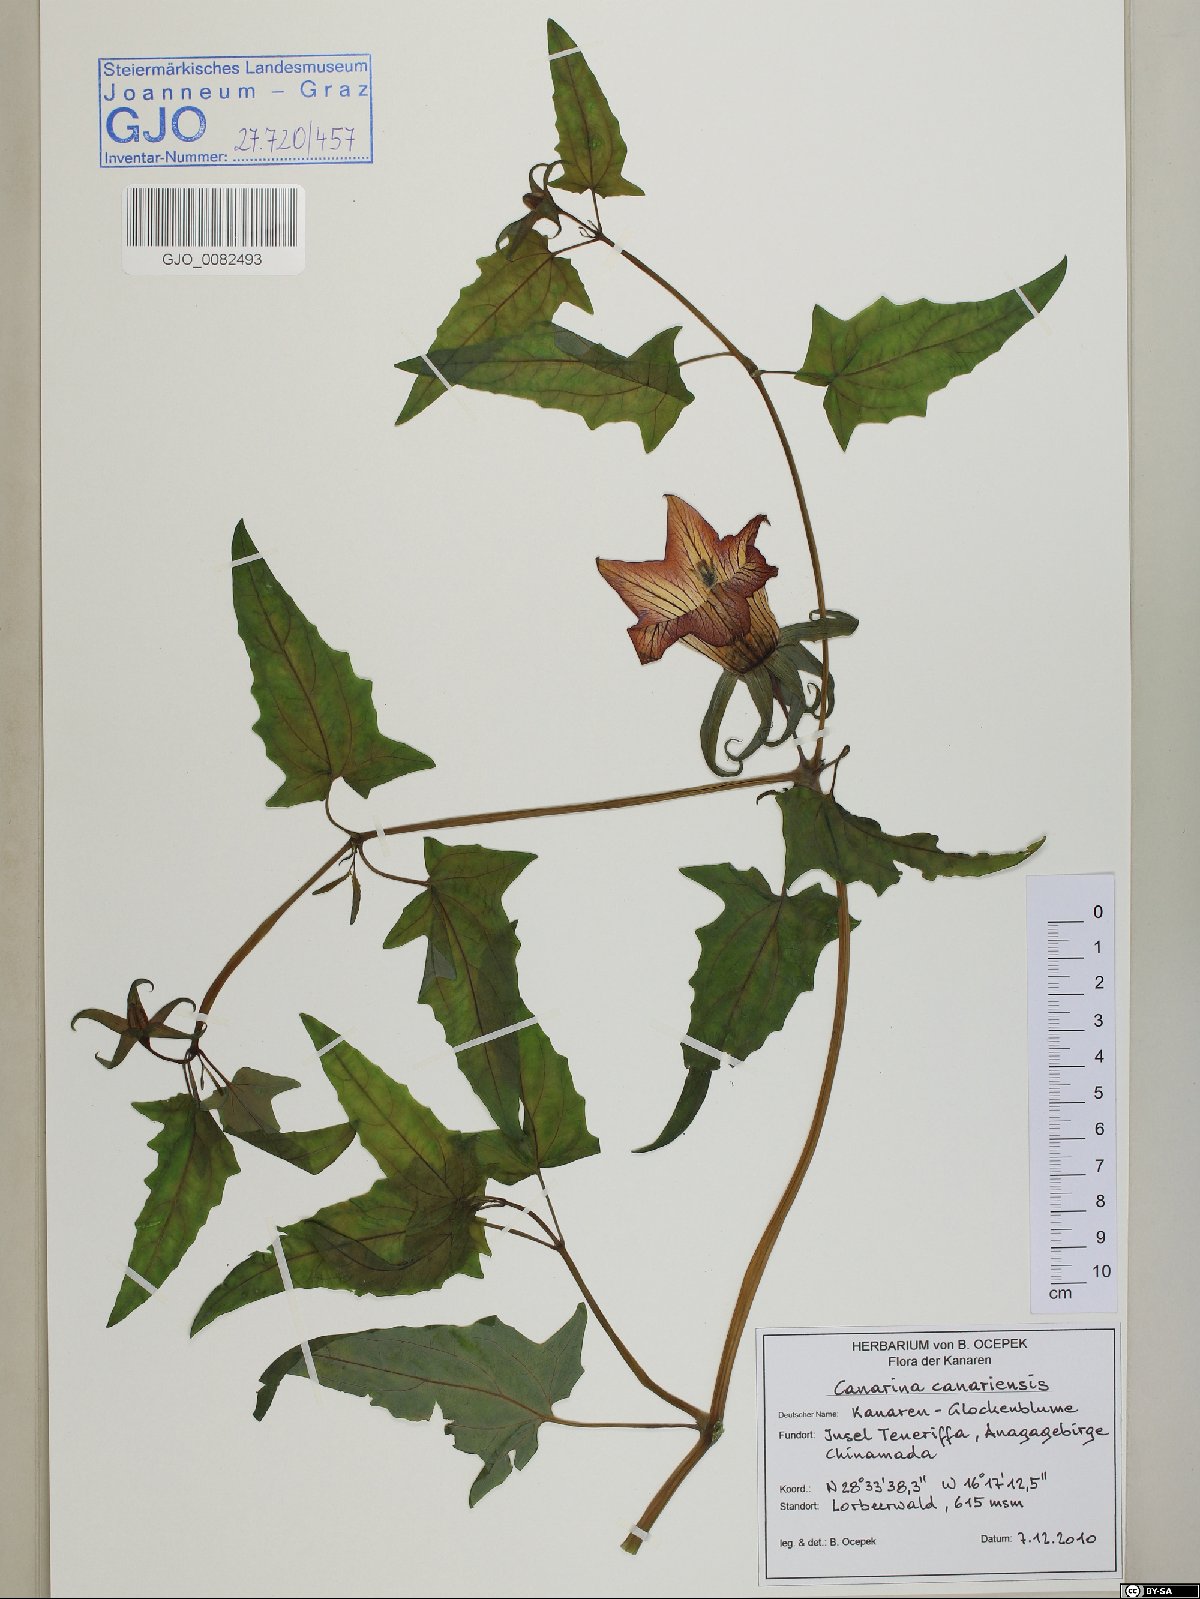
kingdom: Plantae
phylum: Tracheophyta
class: Magnoliopsida
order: Asterales
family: Campanulaceae
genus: Canarina
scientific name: Canarina canariensis
